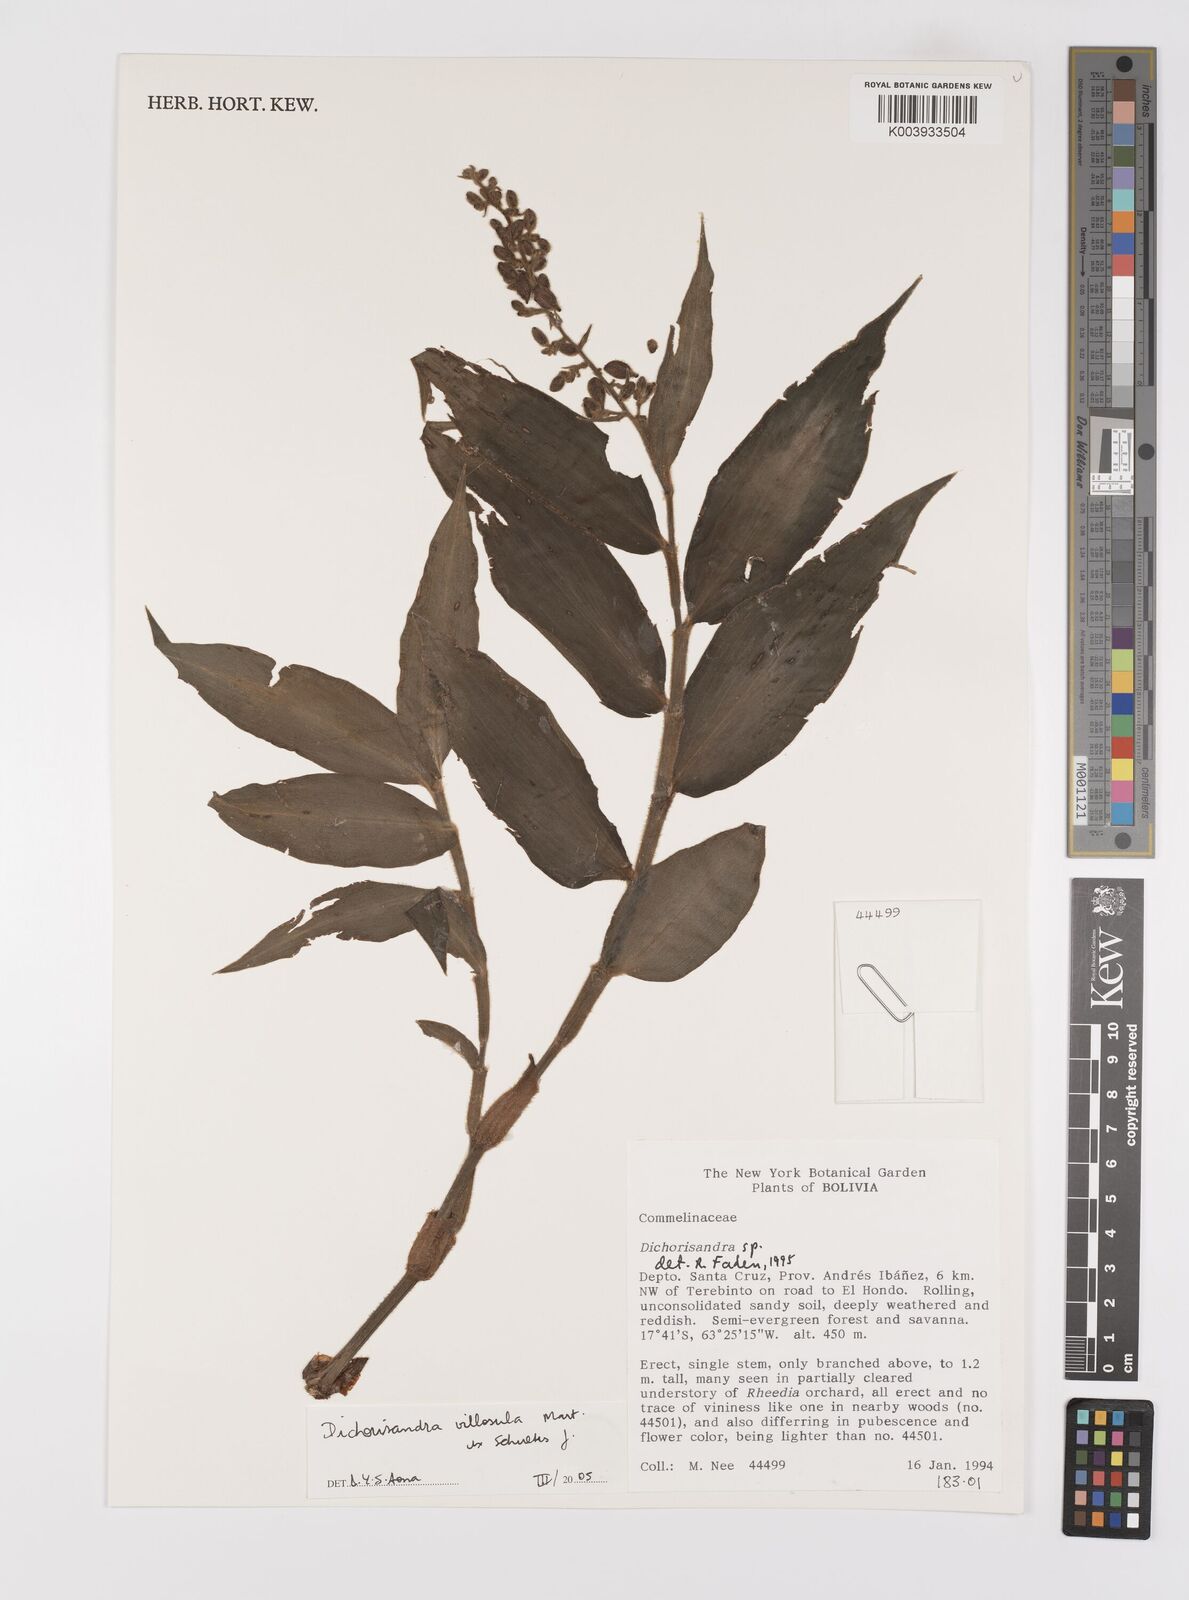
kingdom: Plantae
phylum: Tracheophyta
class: Liliopsida
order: Commelinales
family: Commelinaceae
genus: Dichorisandra
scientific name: Dichorisandra villosula
